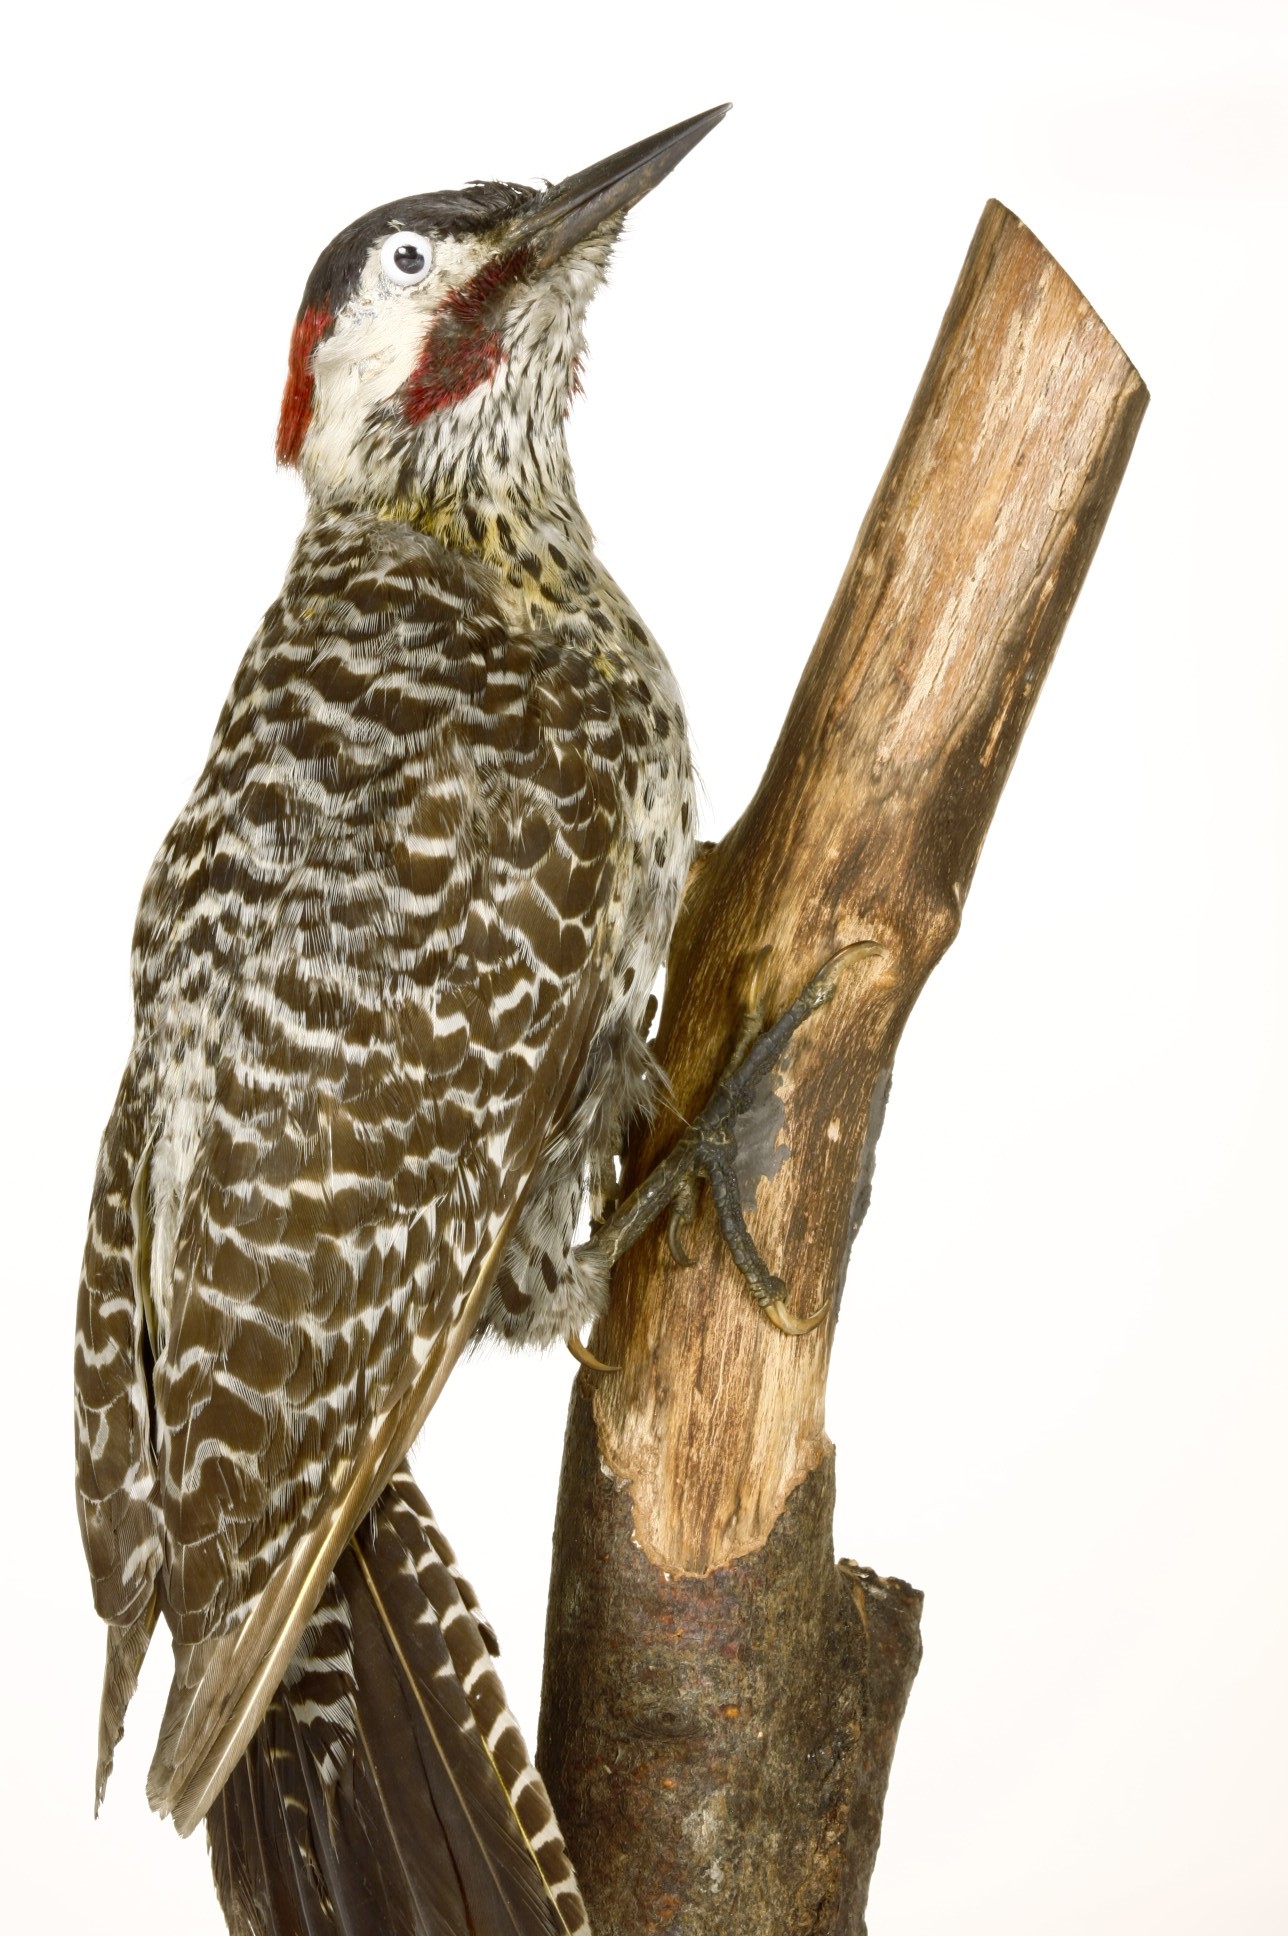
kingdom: Animalia
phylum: Chordata
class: Aves
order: Piciformes
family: Picidae
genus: Colaptes
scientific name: Colaptes melanochloros
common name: Green-barred woodpecker
